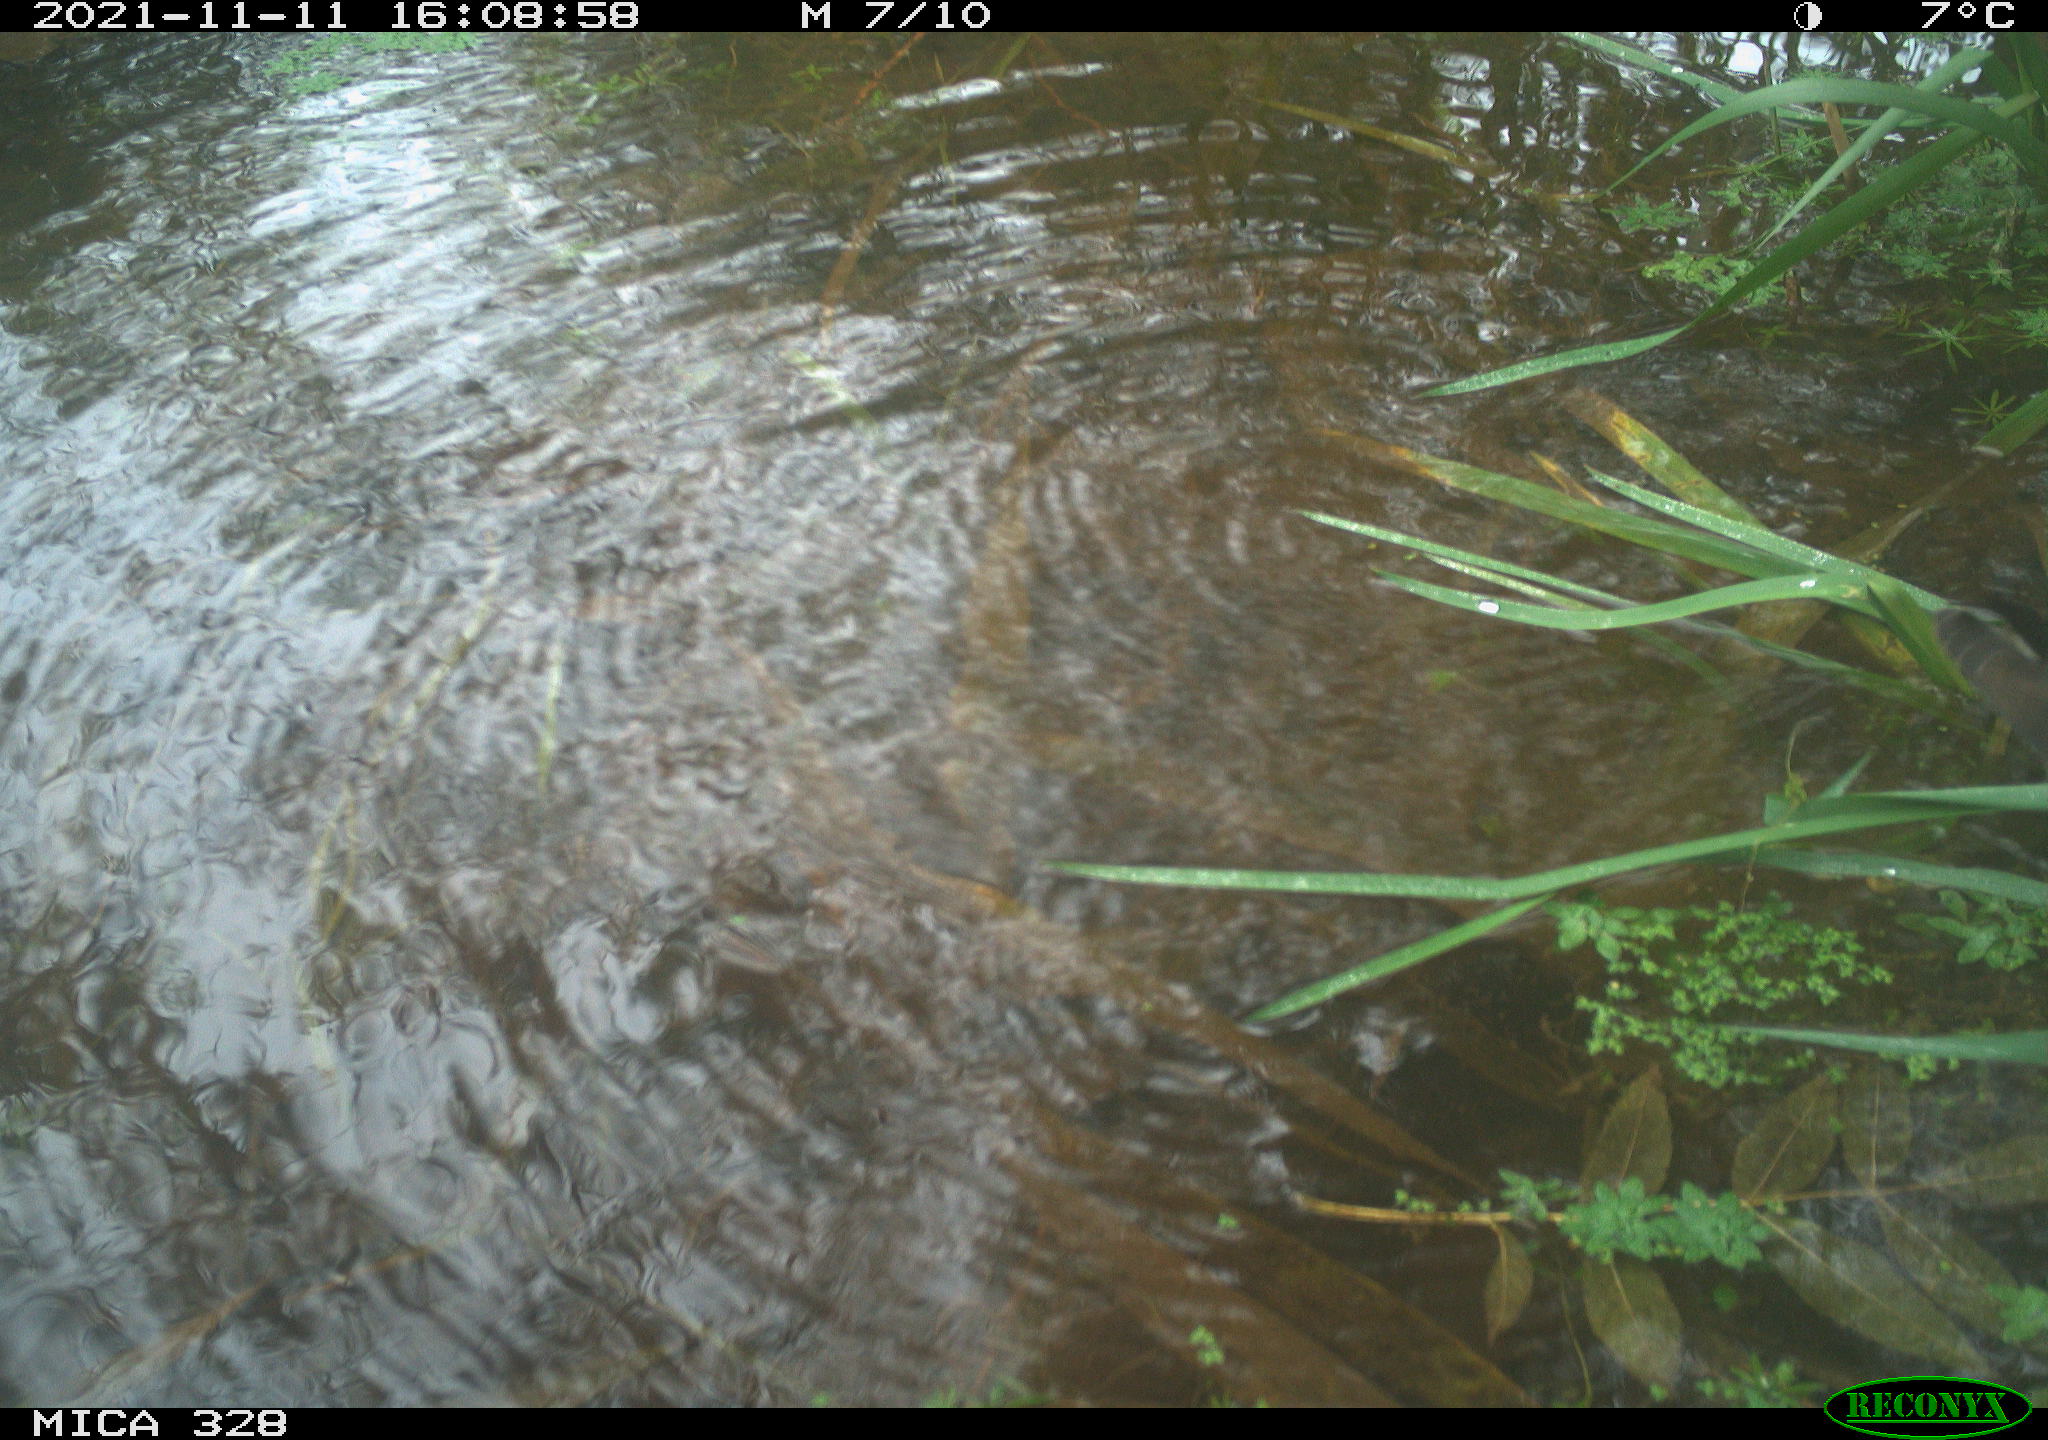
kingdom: Animalia
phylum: Chordata
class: Aves
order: Gruiformes
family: Rallidae
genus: Gallinula
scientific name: Gallinula chloropus
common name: Common moorhen
